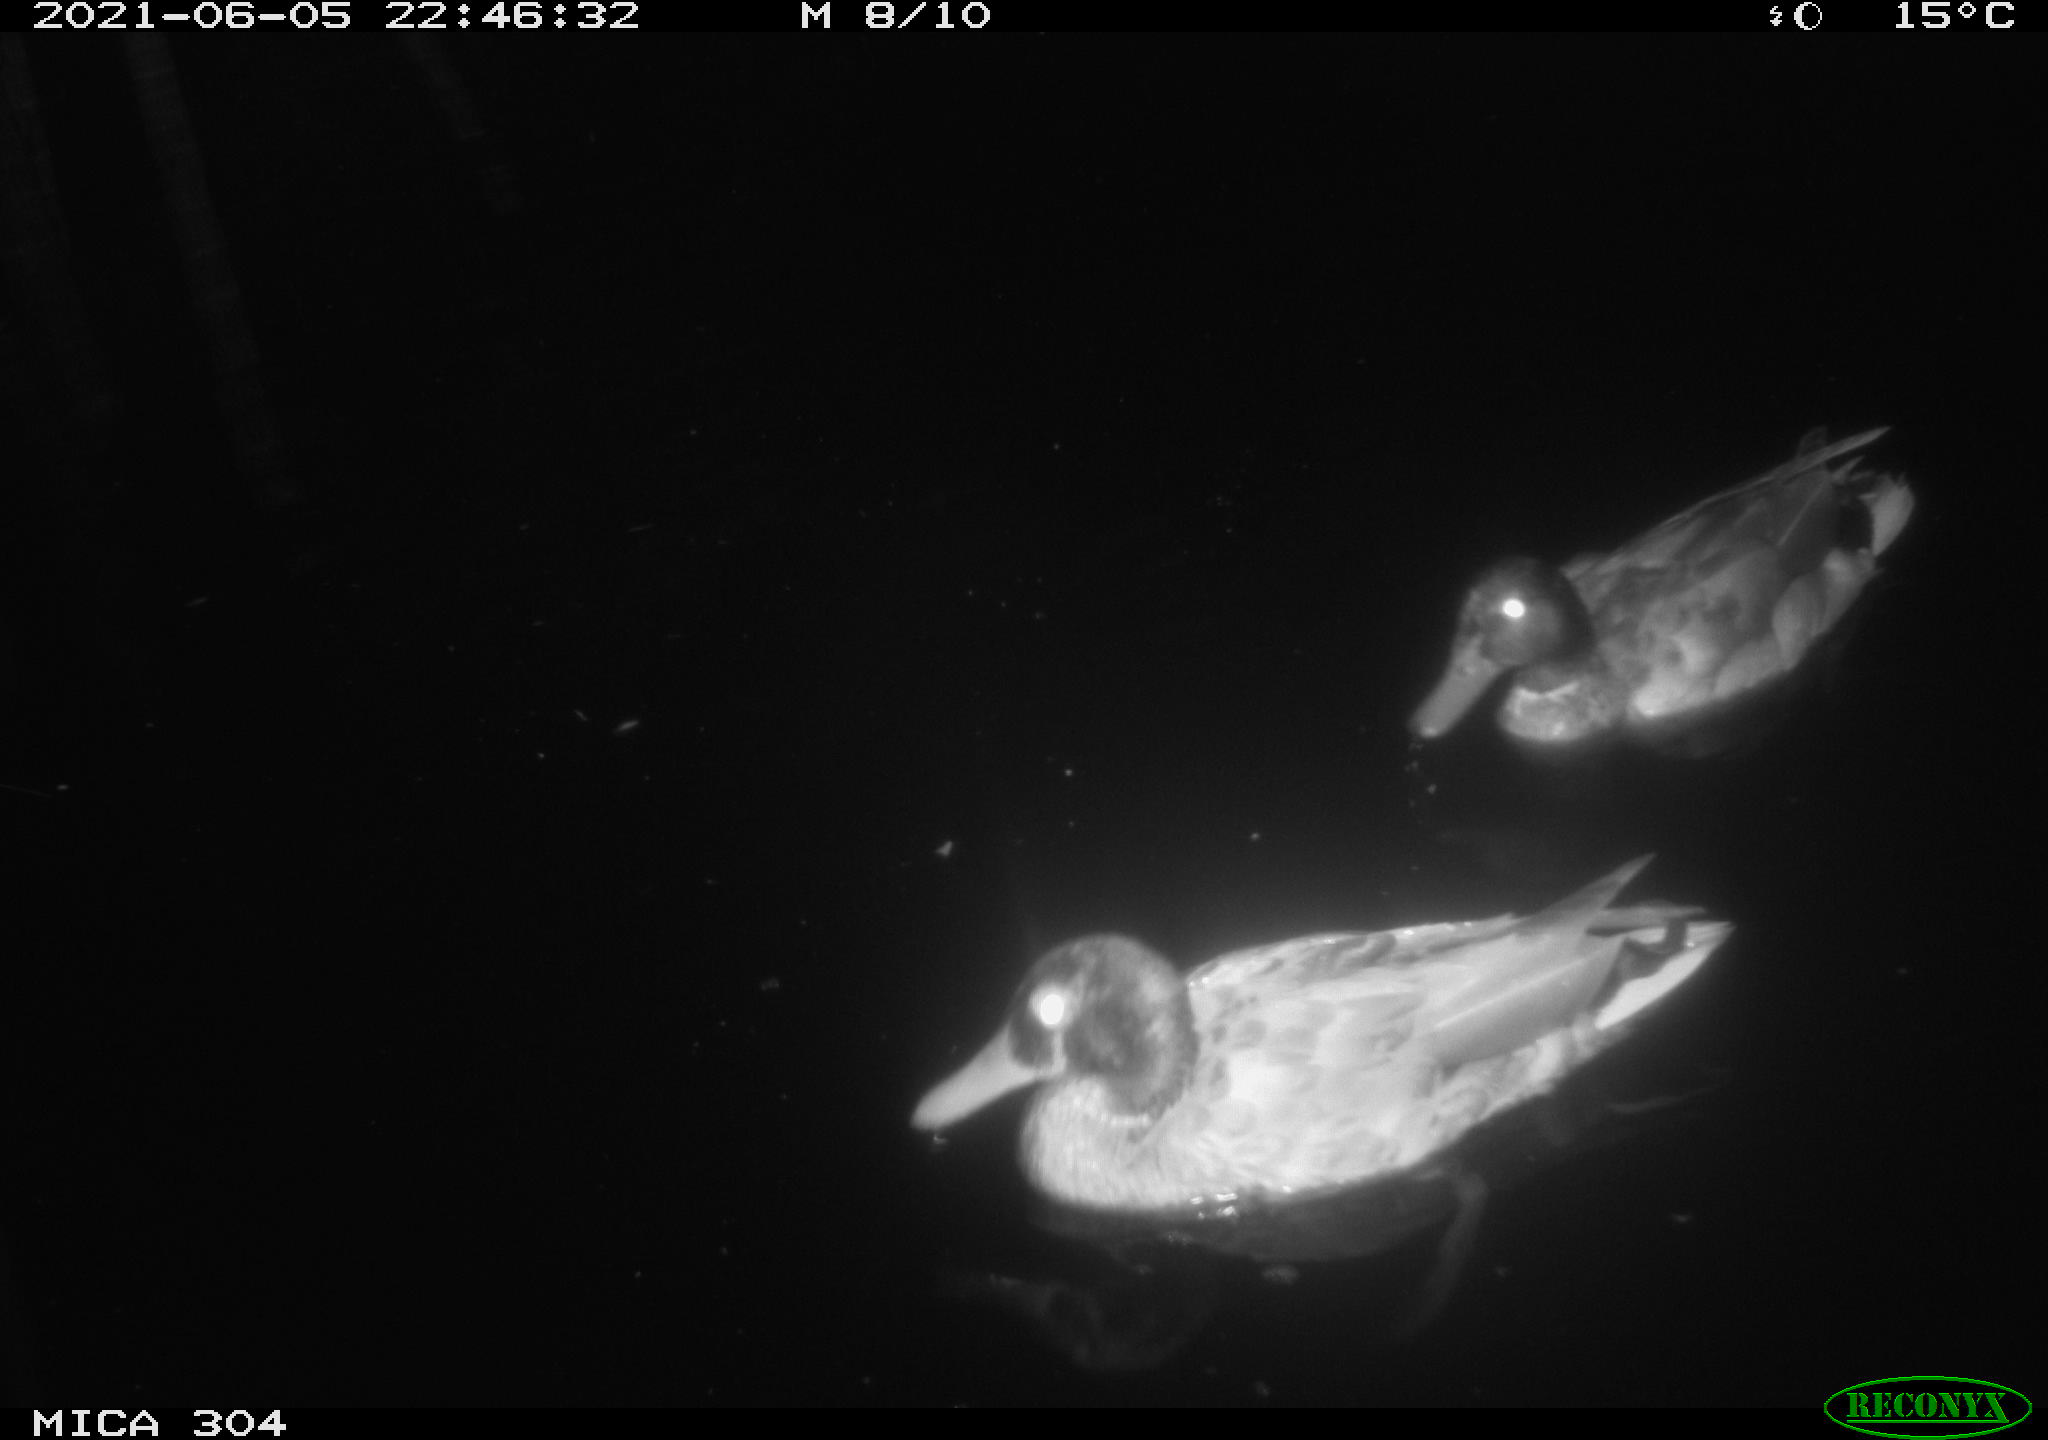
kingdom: Animalia
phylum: Chordata
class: Aves
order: Anseriformes
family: Anatidae
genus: Anas
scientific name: Anas platyrhynchos
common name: Mallard
